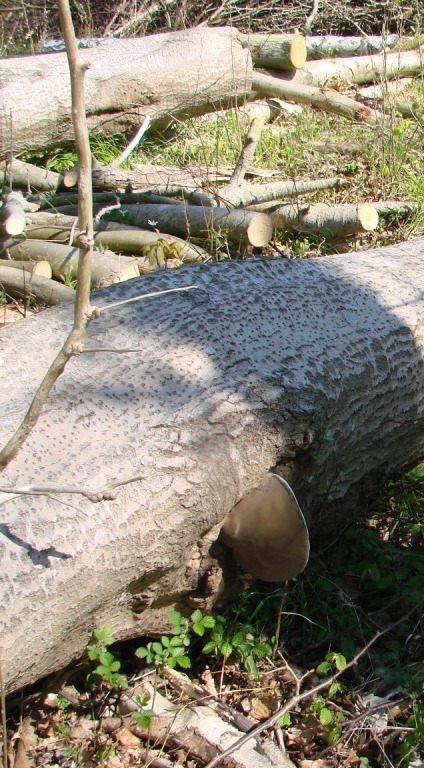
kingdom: Fungi
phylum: Basidiomycota
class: Agaricomycetes
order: Hymenochaetales
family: Hymenochaetaceae
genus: Phellinus
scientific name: Phellinus populicola
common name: poppel-ildporesvamp
